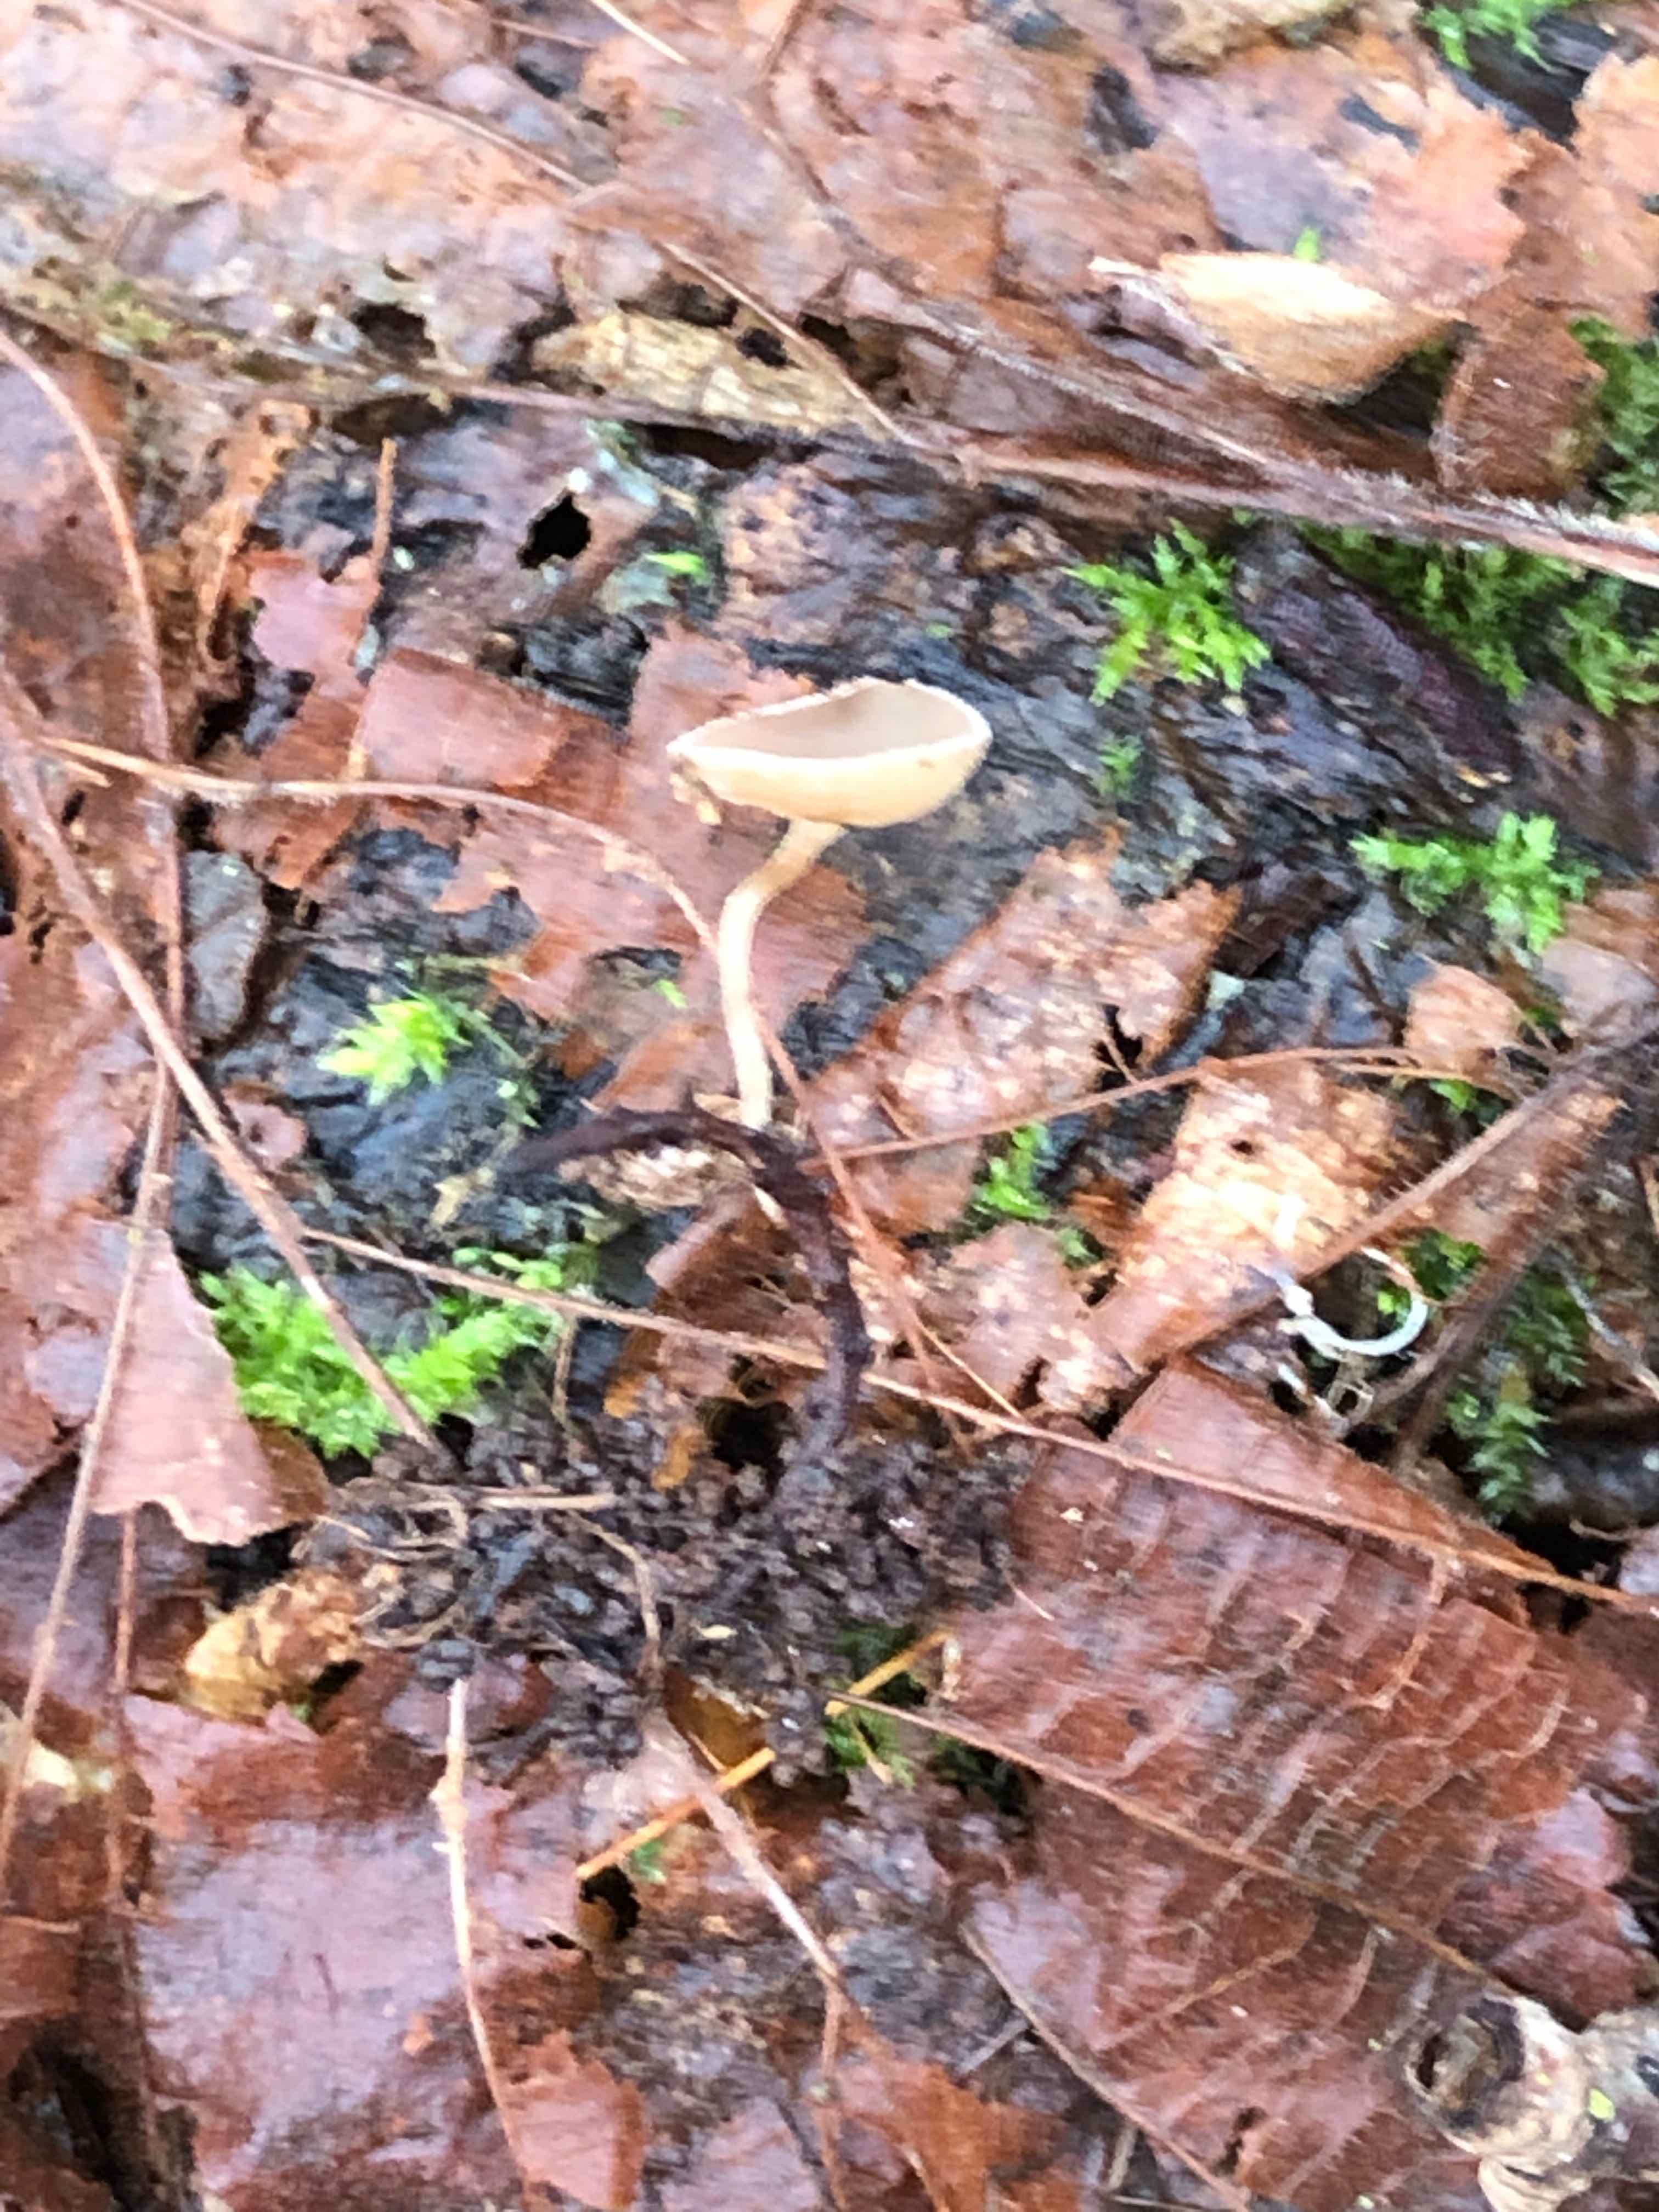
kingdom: Fungi
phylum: Ascomycota
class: Leotiomycetes
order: Helotiales
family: Sclerotiniaceae
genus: Ciboria
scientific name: Ciboria amentacea
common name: ellerakle-knoldskive
